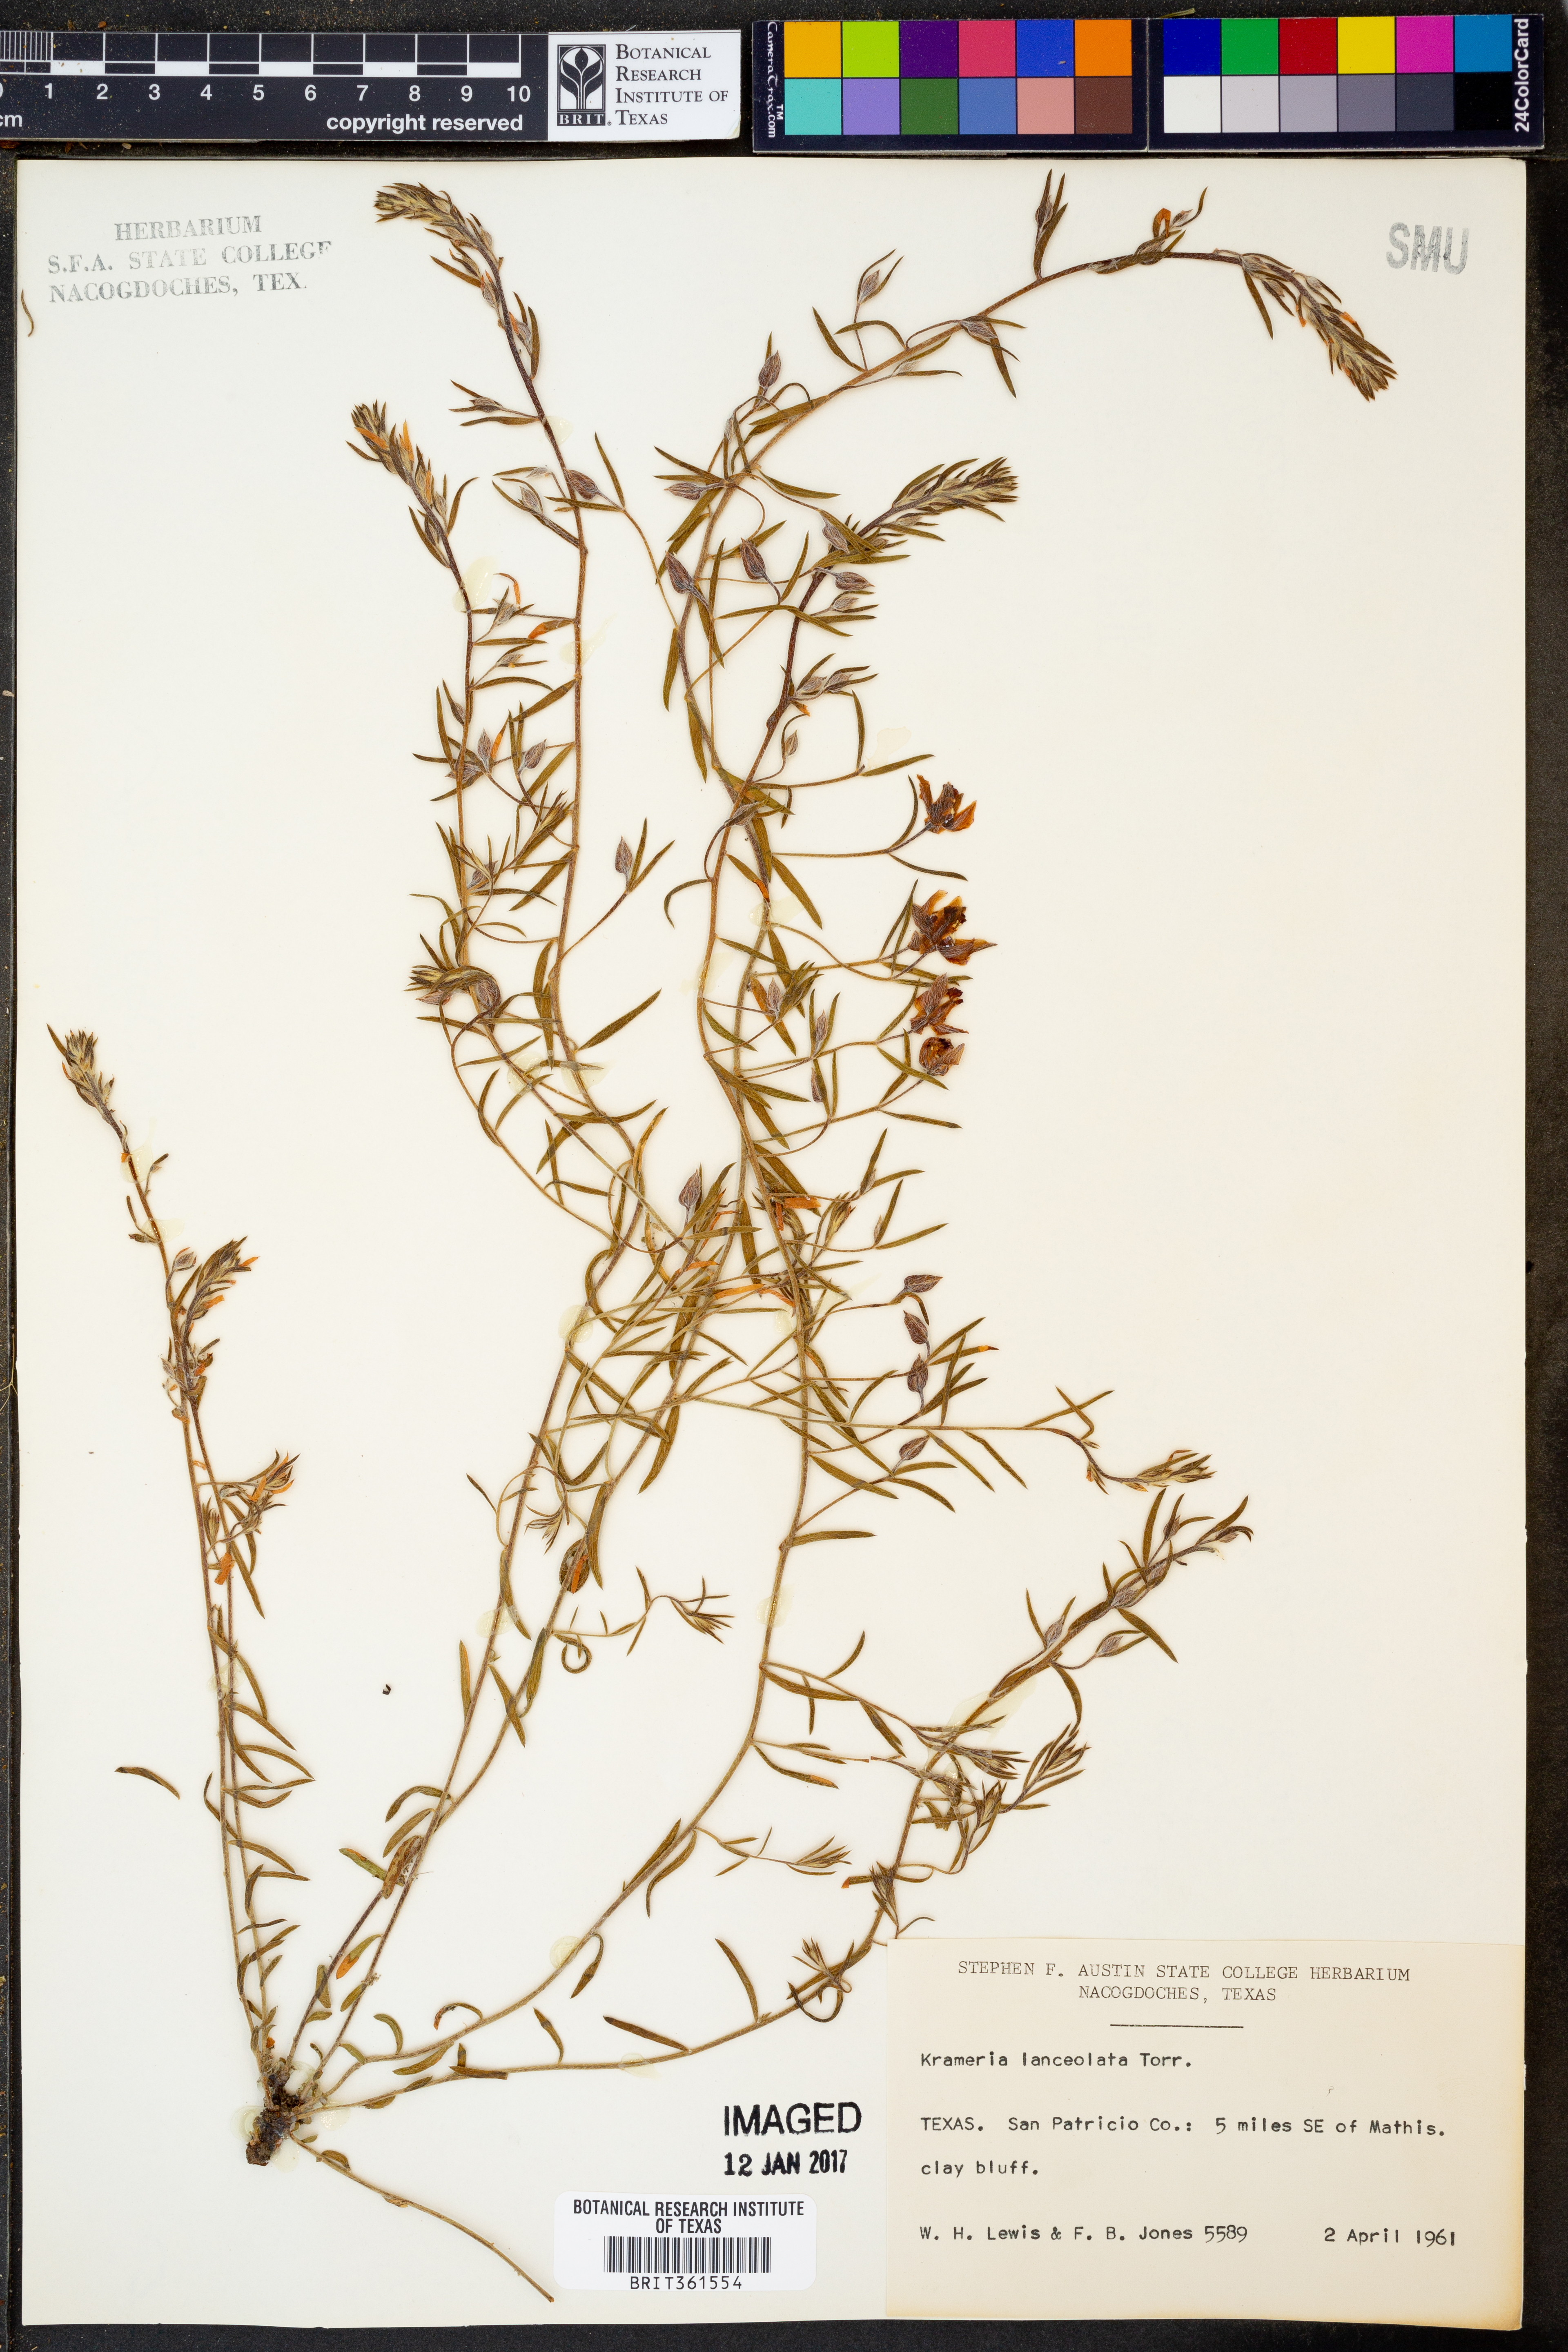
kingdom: Plantae
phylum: Tracheophyta
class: Magnoliopsida
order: Zygophyllales
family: Krameriaceae
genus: Krameria
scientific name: Krameria lanceolata
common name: Ratany
